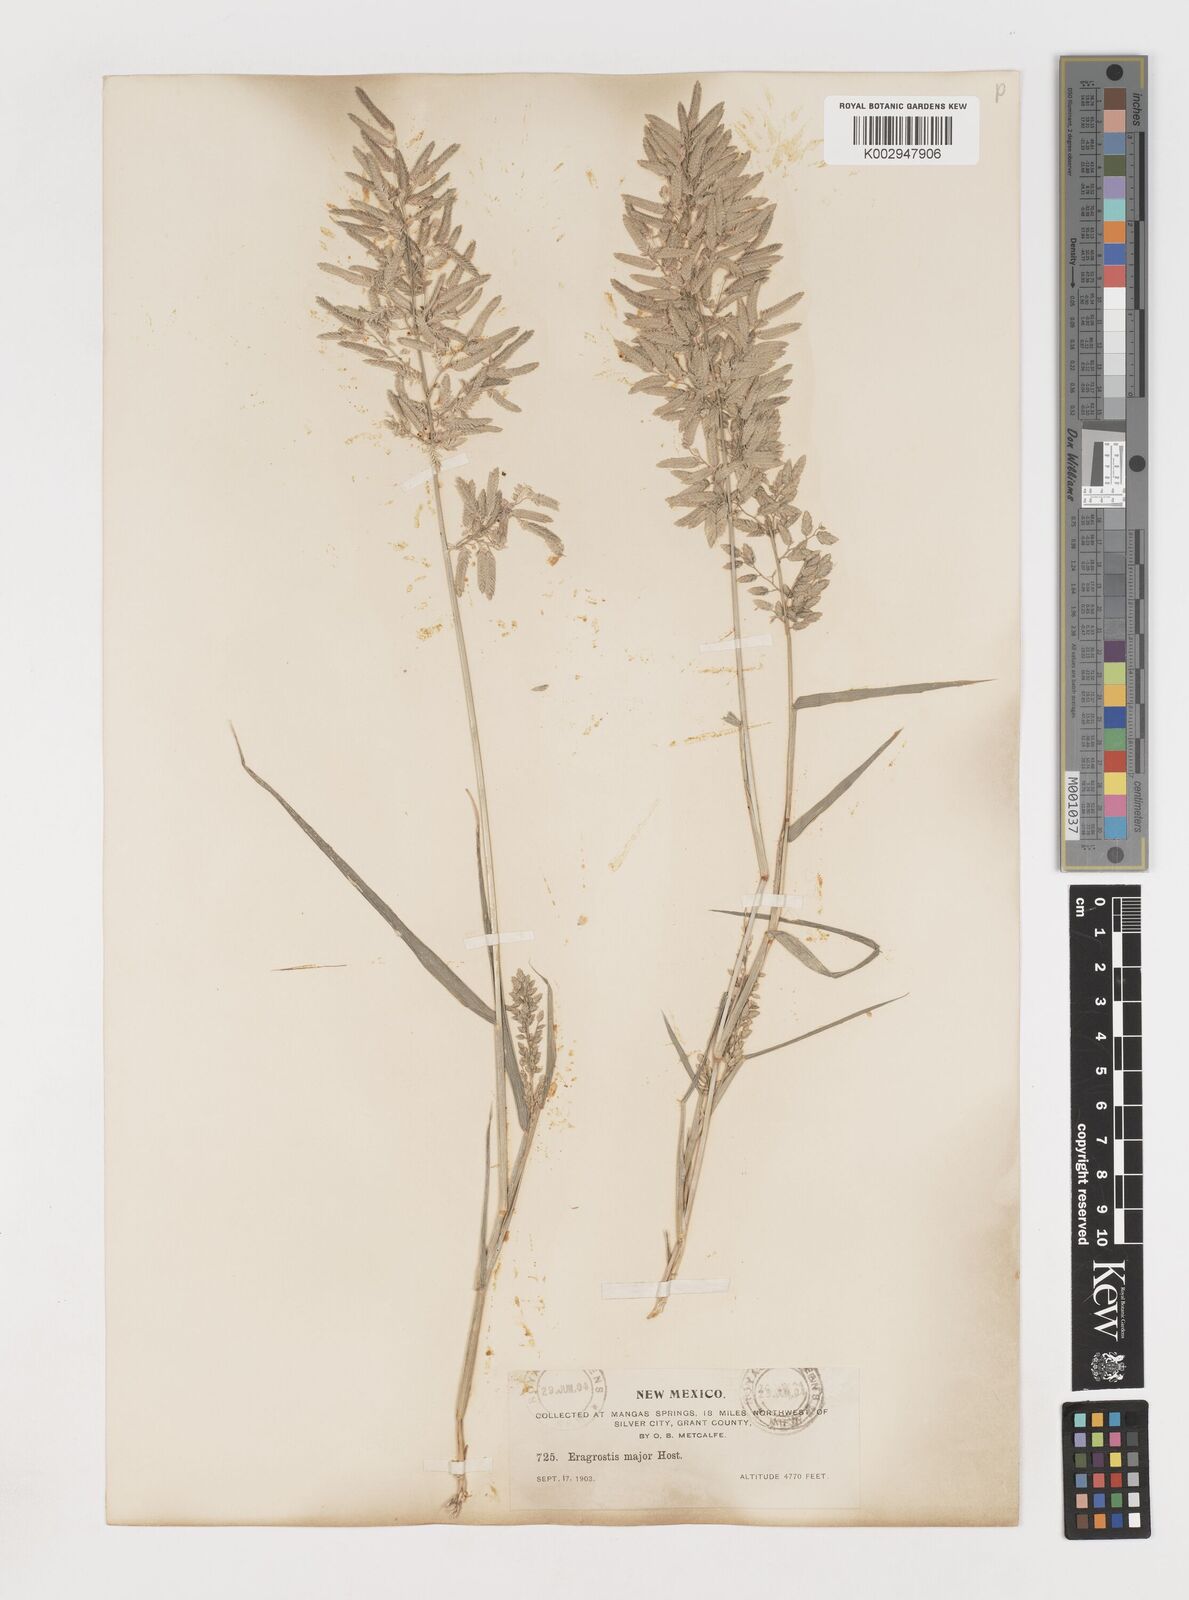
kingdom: Plantae
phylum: Tracheophyta
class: Liliopsida
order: Poales
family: Poaceae
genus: Eragrostis
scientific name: Eragrostis
